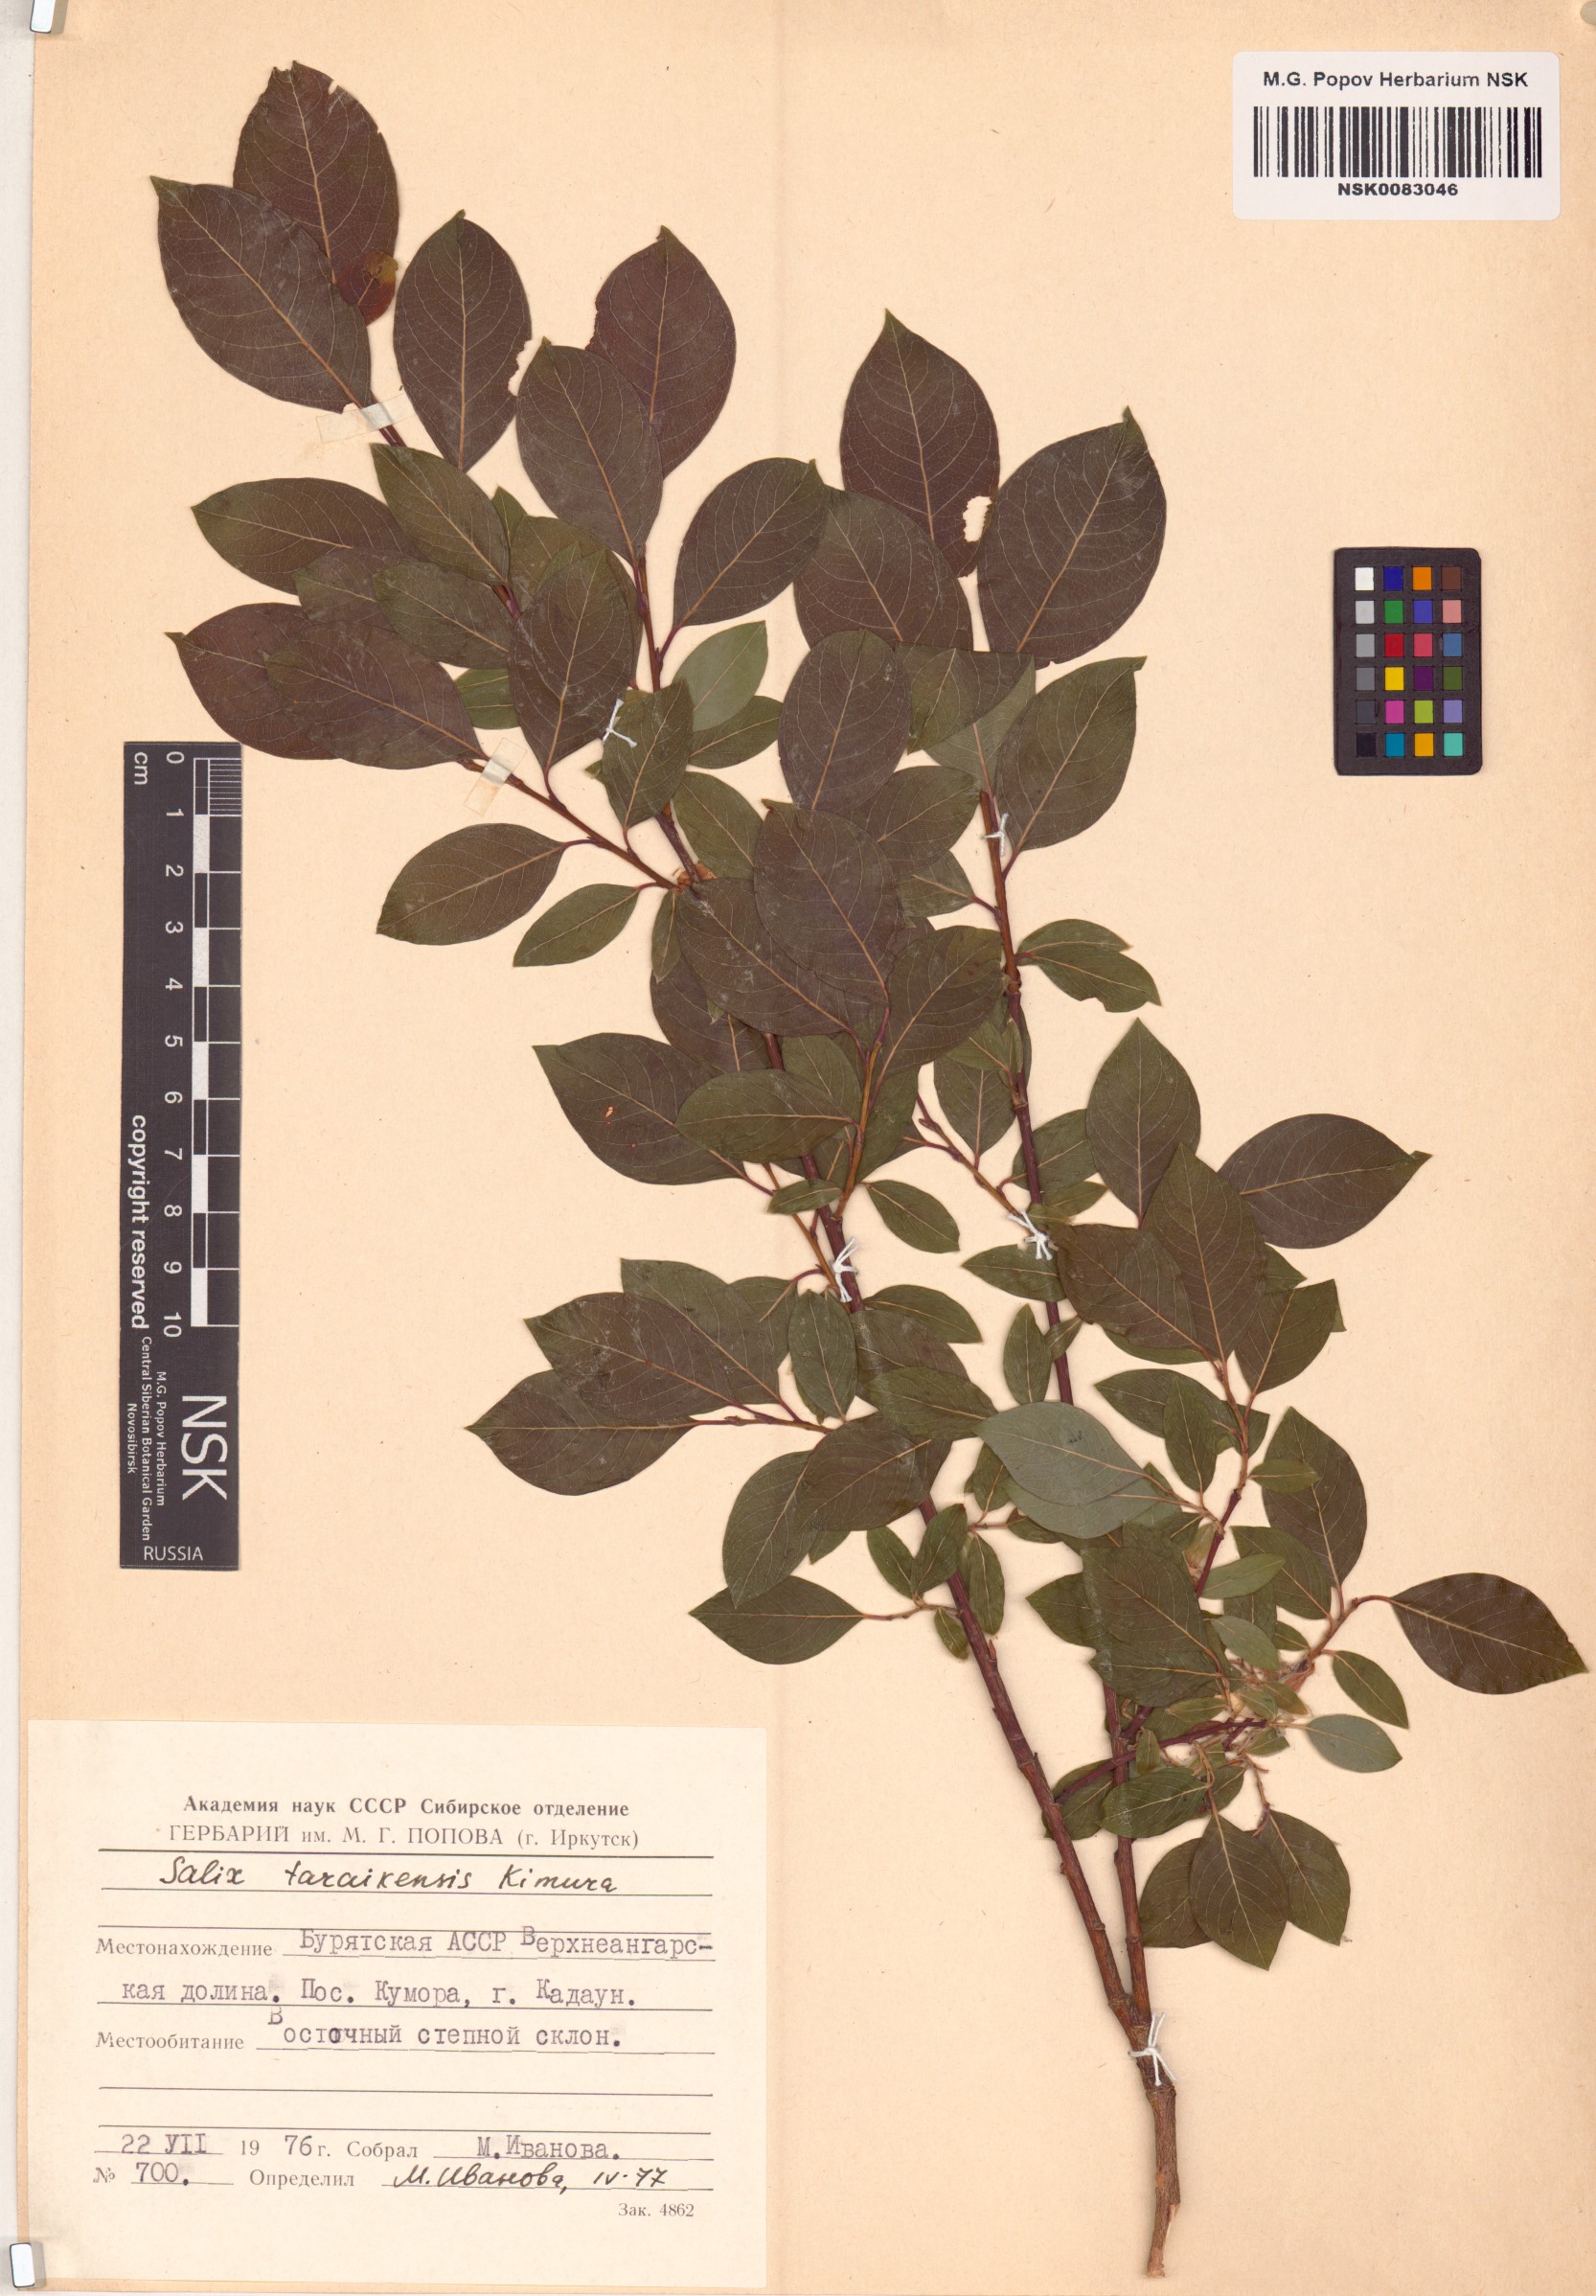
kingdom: Plantae
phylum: Tracheophyta
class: Magnoliopsida
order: Malpighiales
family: Salicaceae
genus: Salix
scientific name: Salix taraikensis
